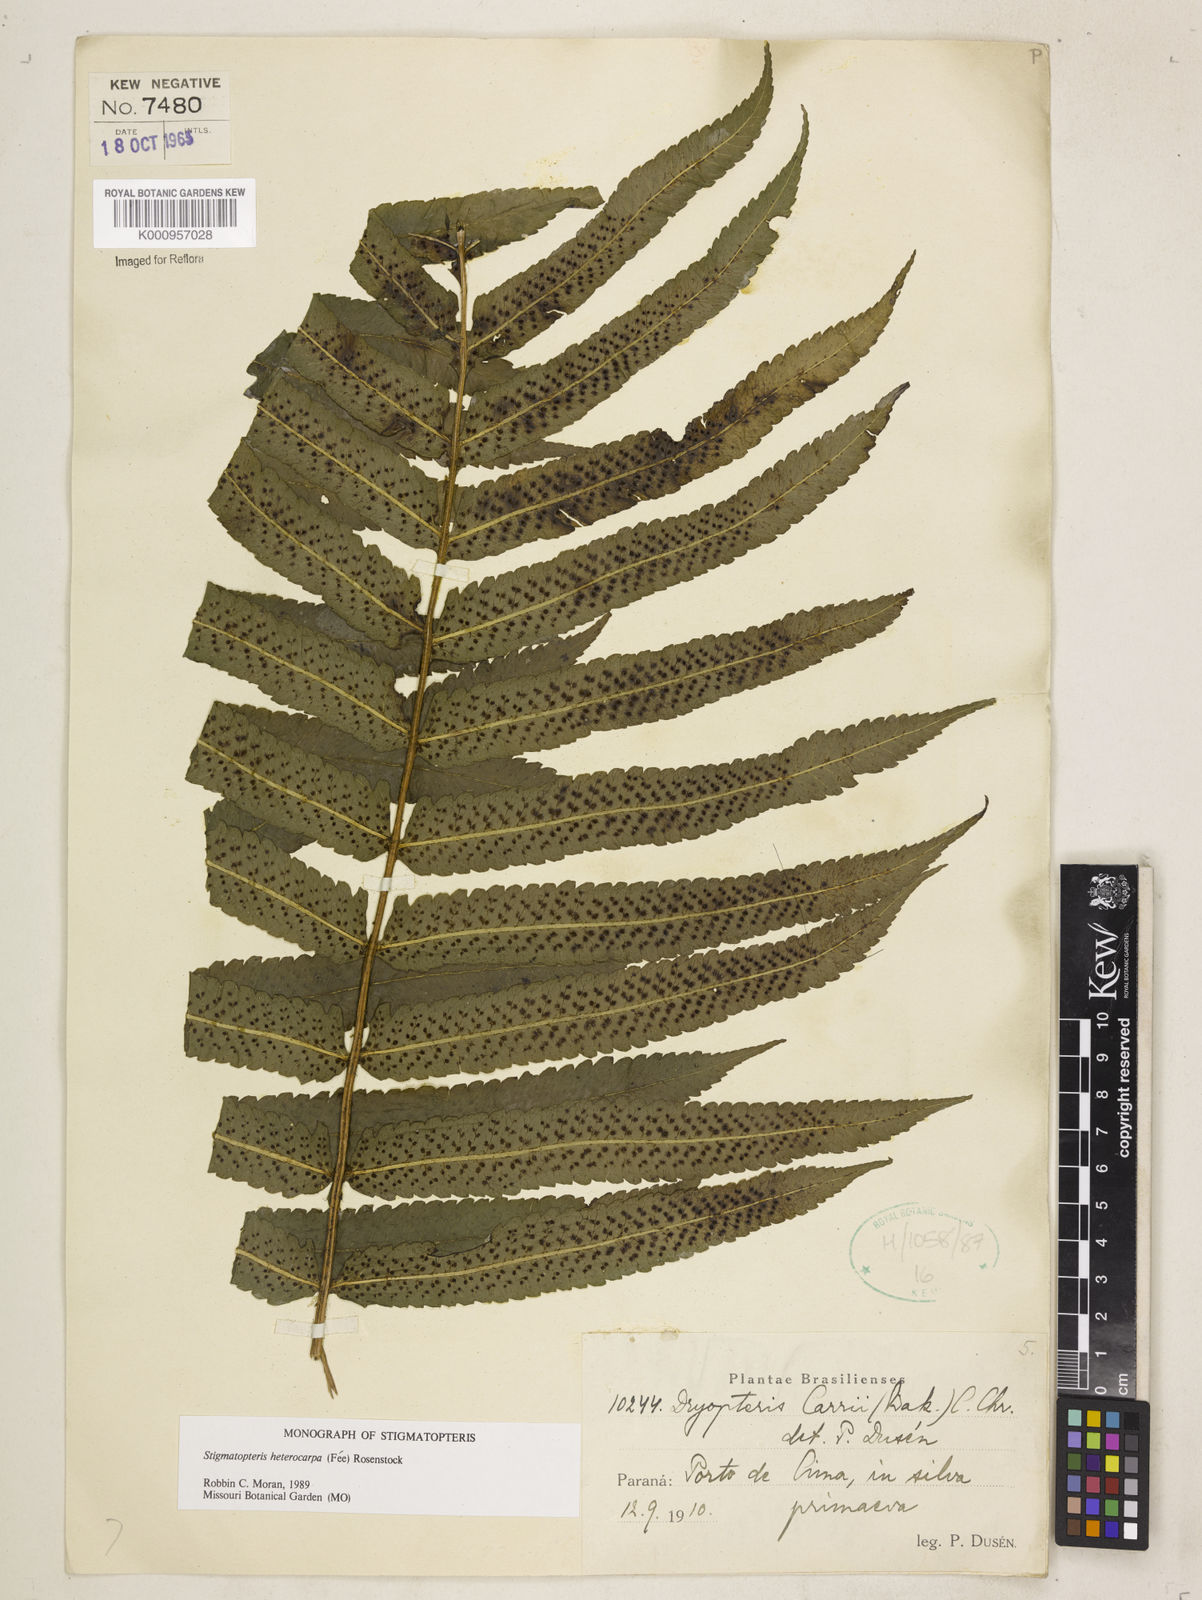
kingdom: Plantae
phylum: Tracheophyta
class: Polypodiopsida
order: Polypodiales
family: Dryopteridaceae
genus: Stigmatopteris
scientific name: Stigmatopteris
